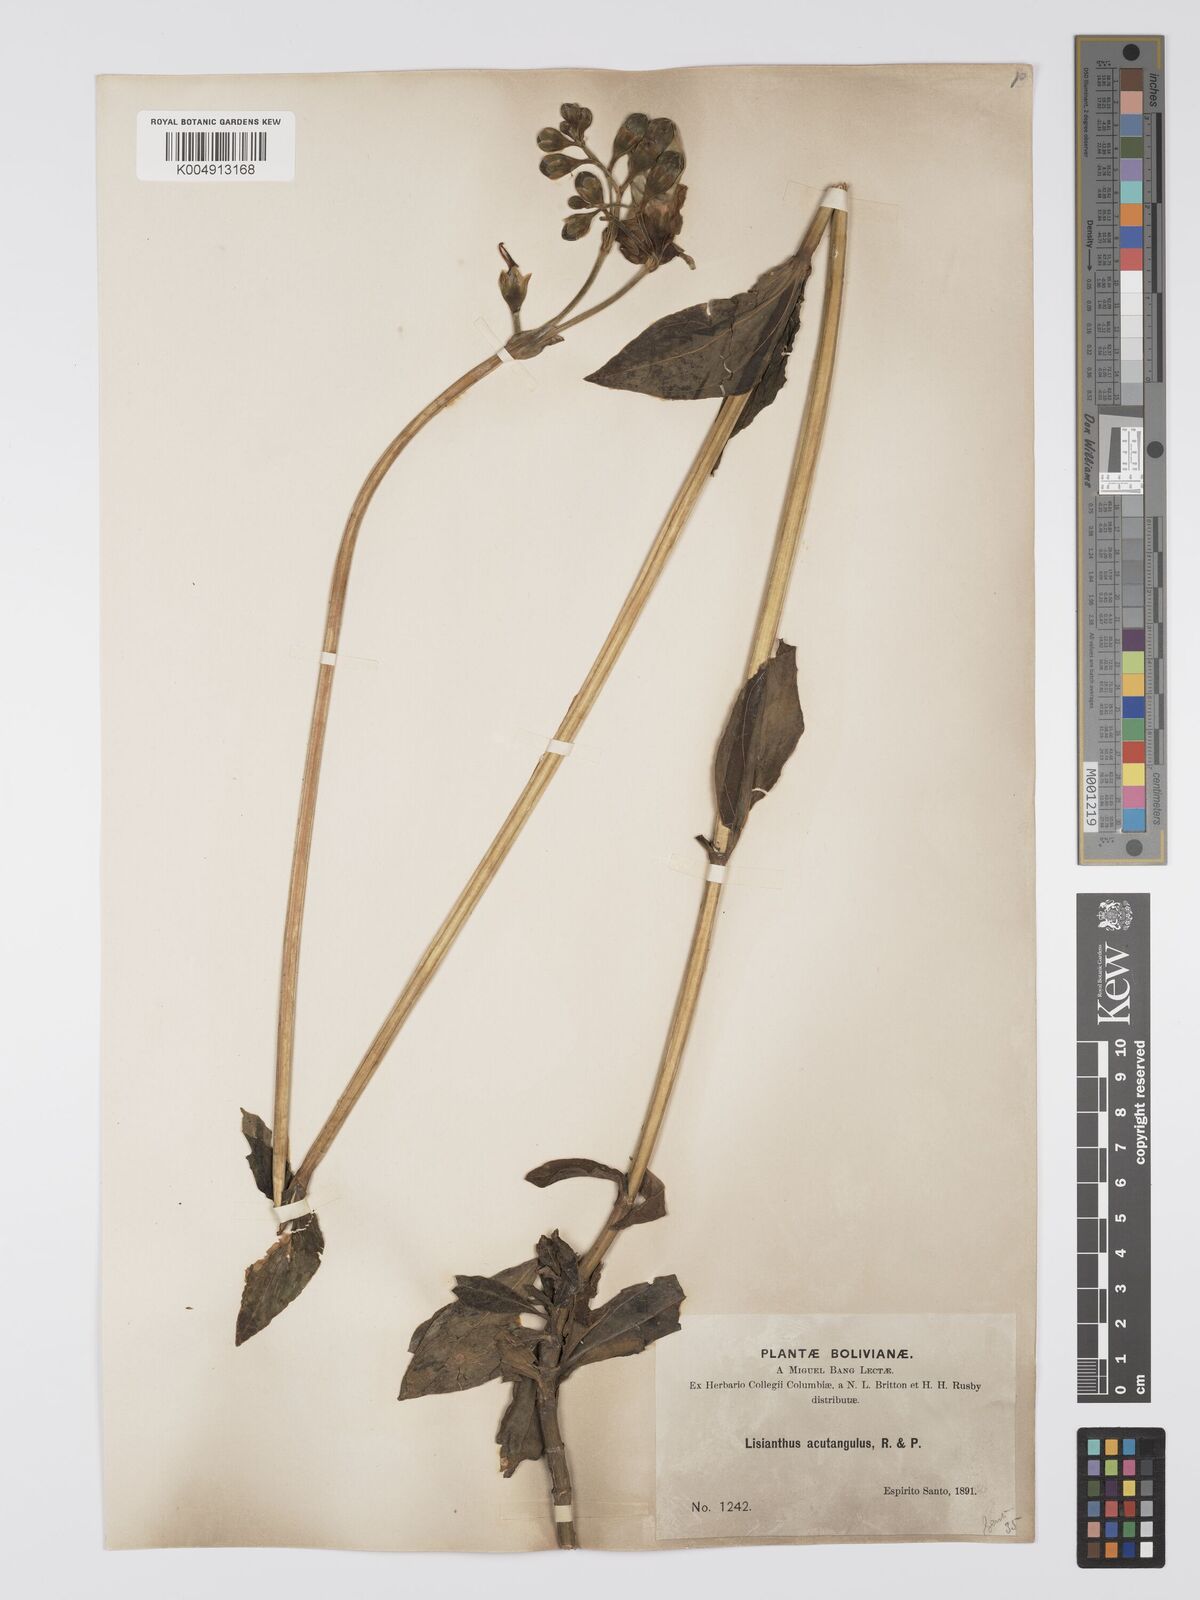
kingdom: Plantae
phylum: Tracheophyta
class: Magnoliopsida
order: Gentianales
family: Gentianaceae
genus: Chelonanthus
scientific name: Chelonanthus alatus
